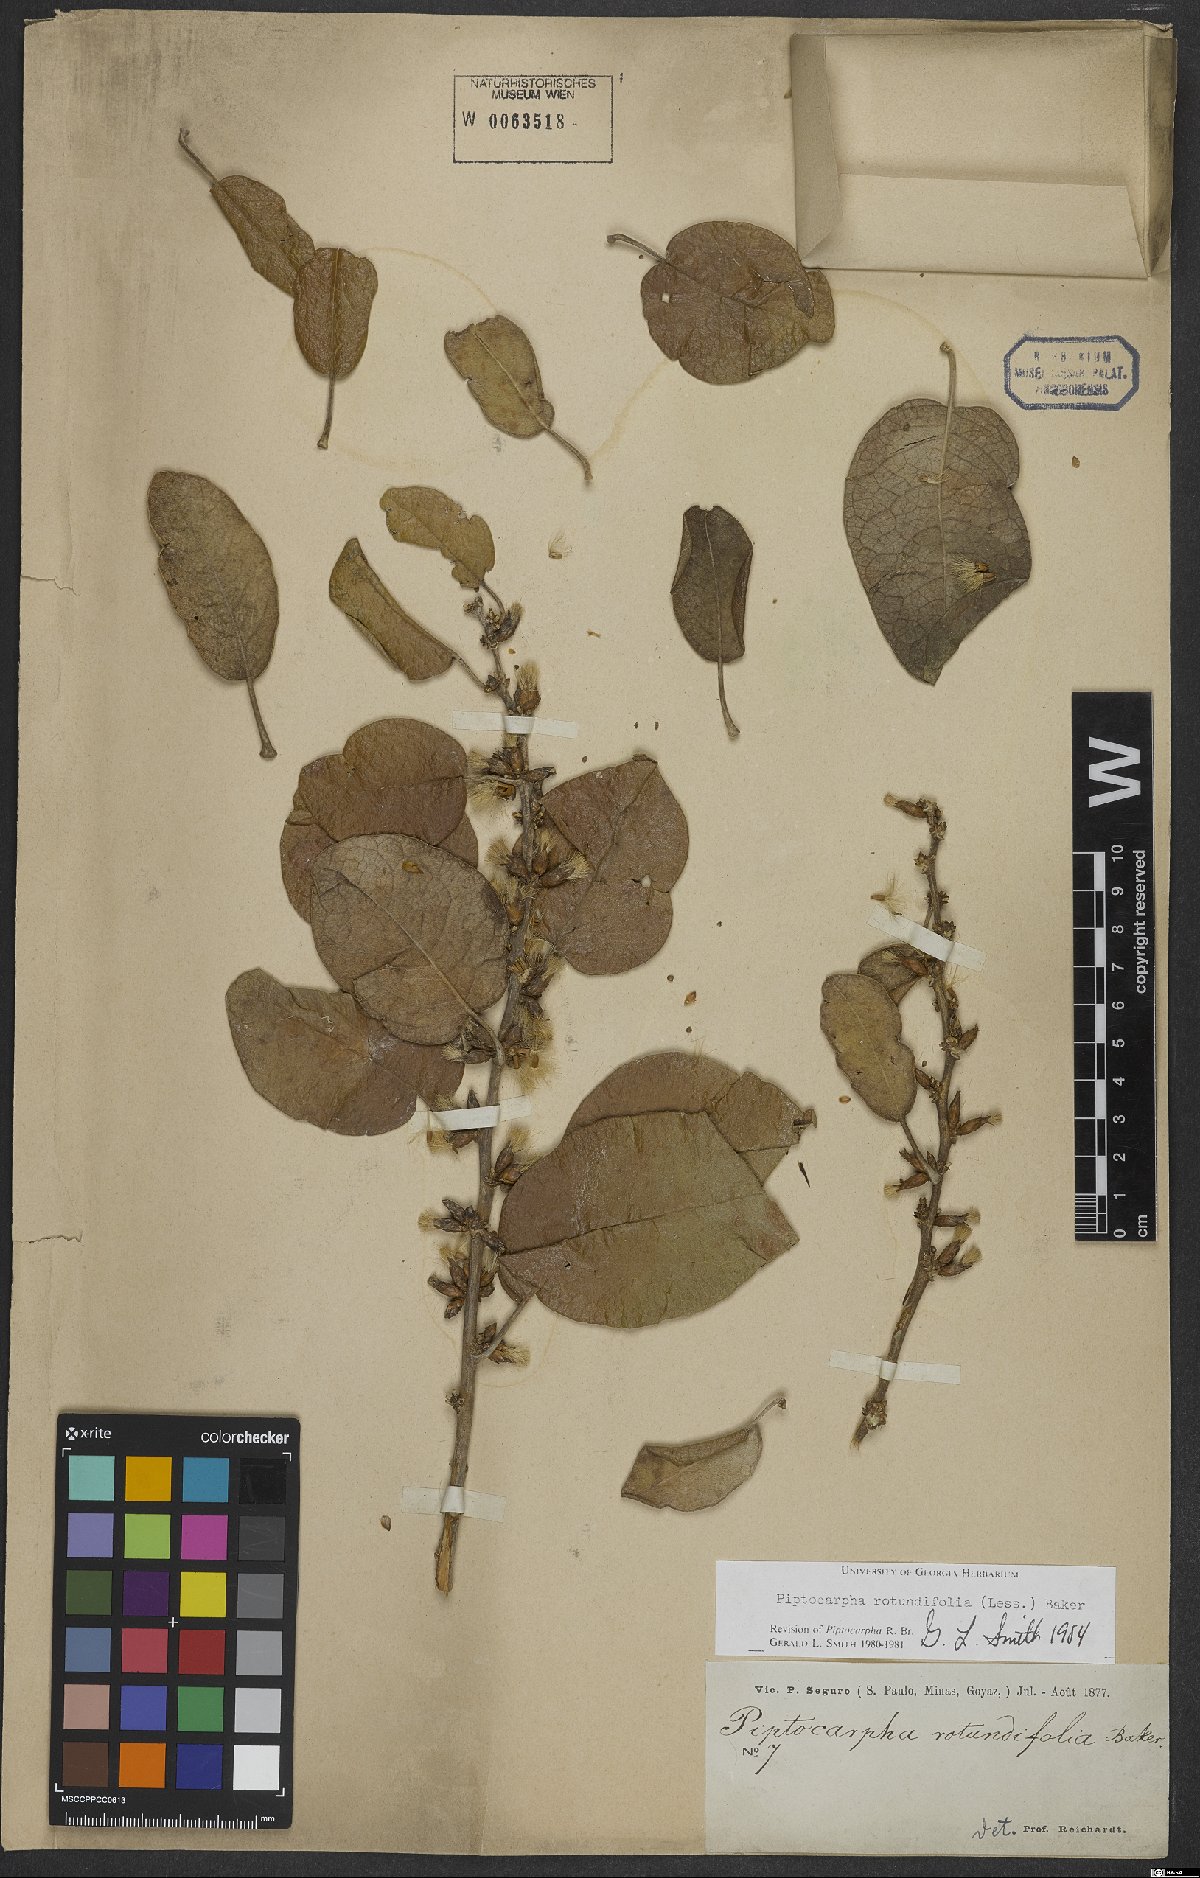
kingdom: Plantae
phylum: Tracheophyta
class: Magnoliopsida
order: Asterales
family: Asteraceae
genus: Piptocarpha
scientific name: Piptocarpha rotundifolia
